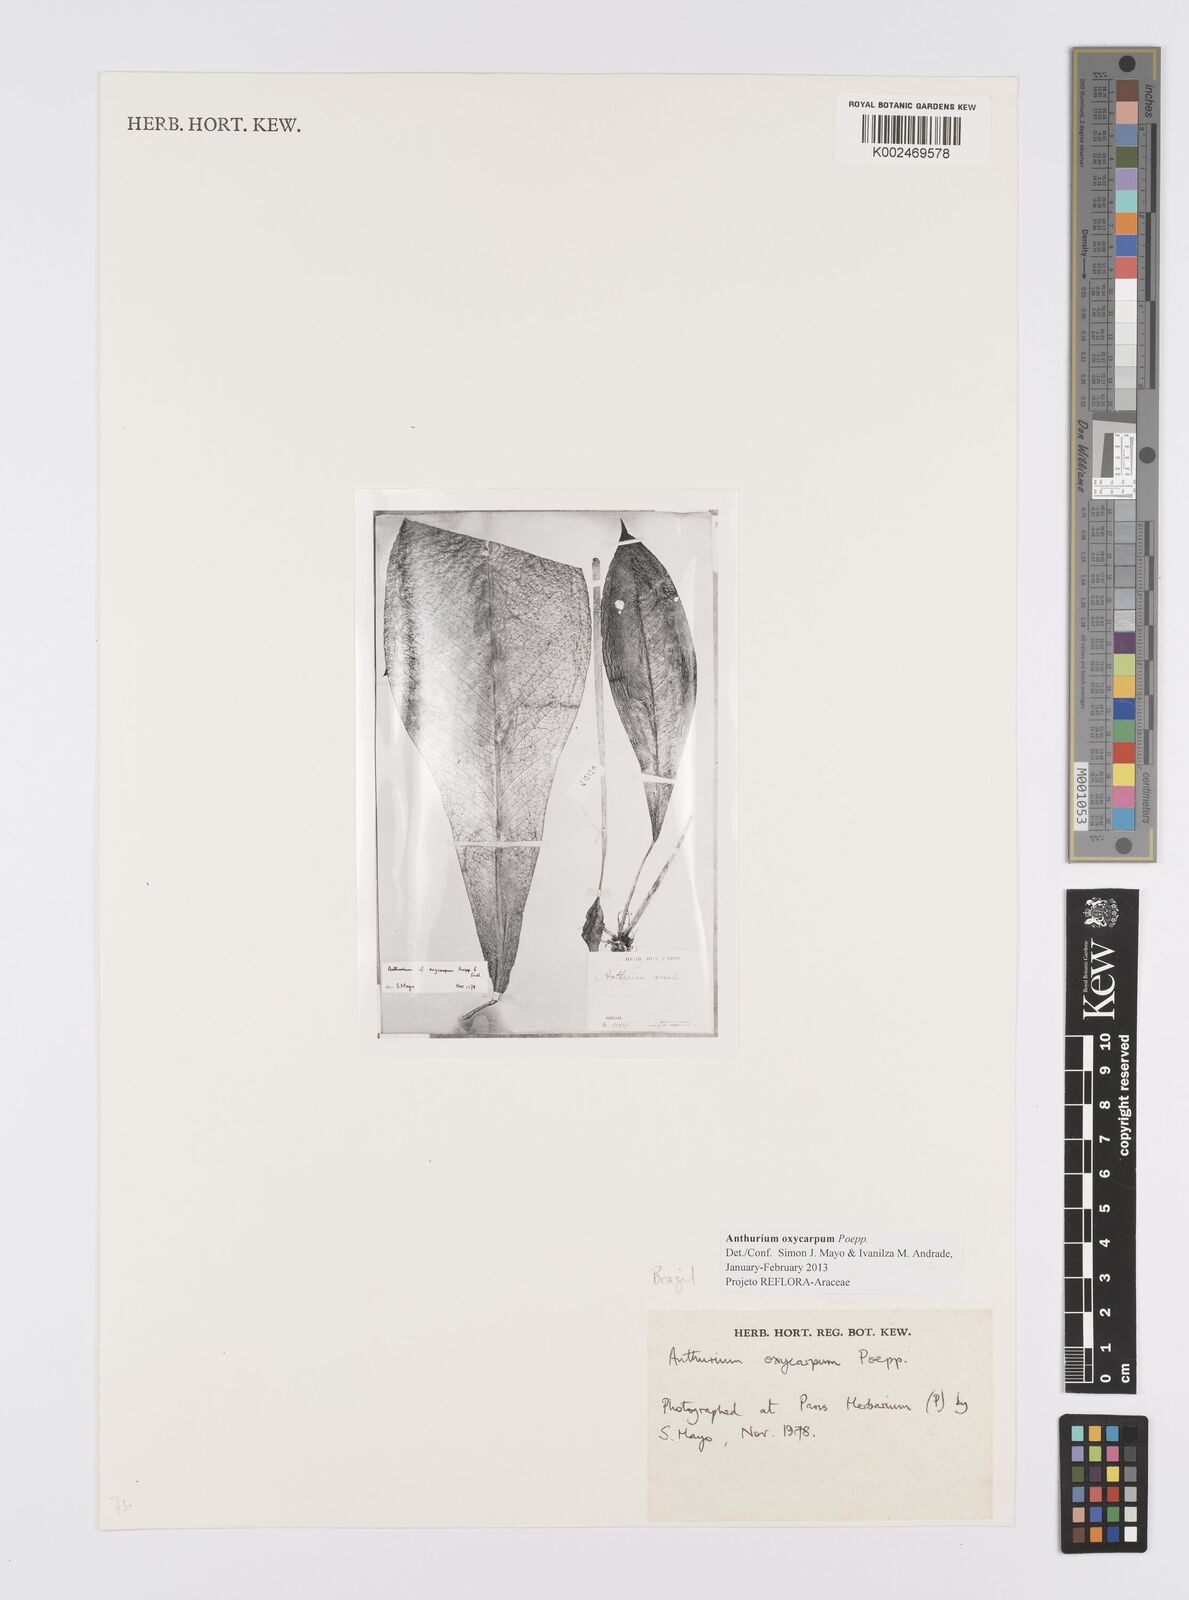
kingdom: Plantae
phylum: Tracheophyta
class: Liliopsida
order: Alismatales
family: Araceae
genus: Anthurium
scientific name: Anthurium oxycarpum
